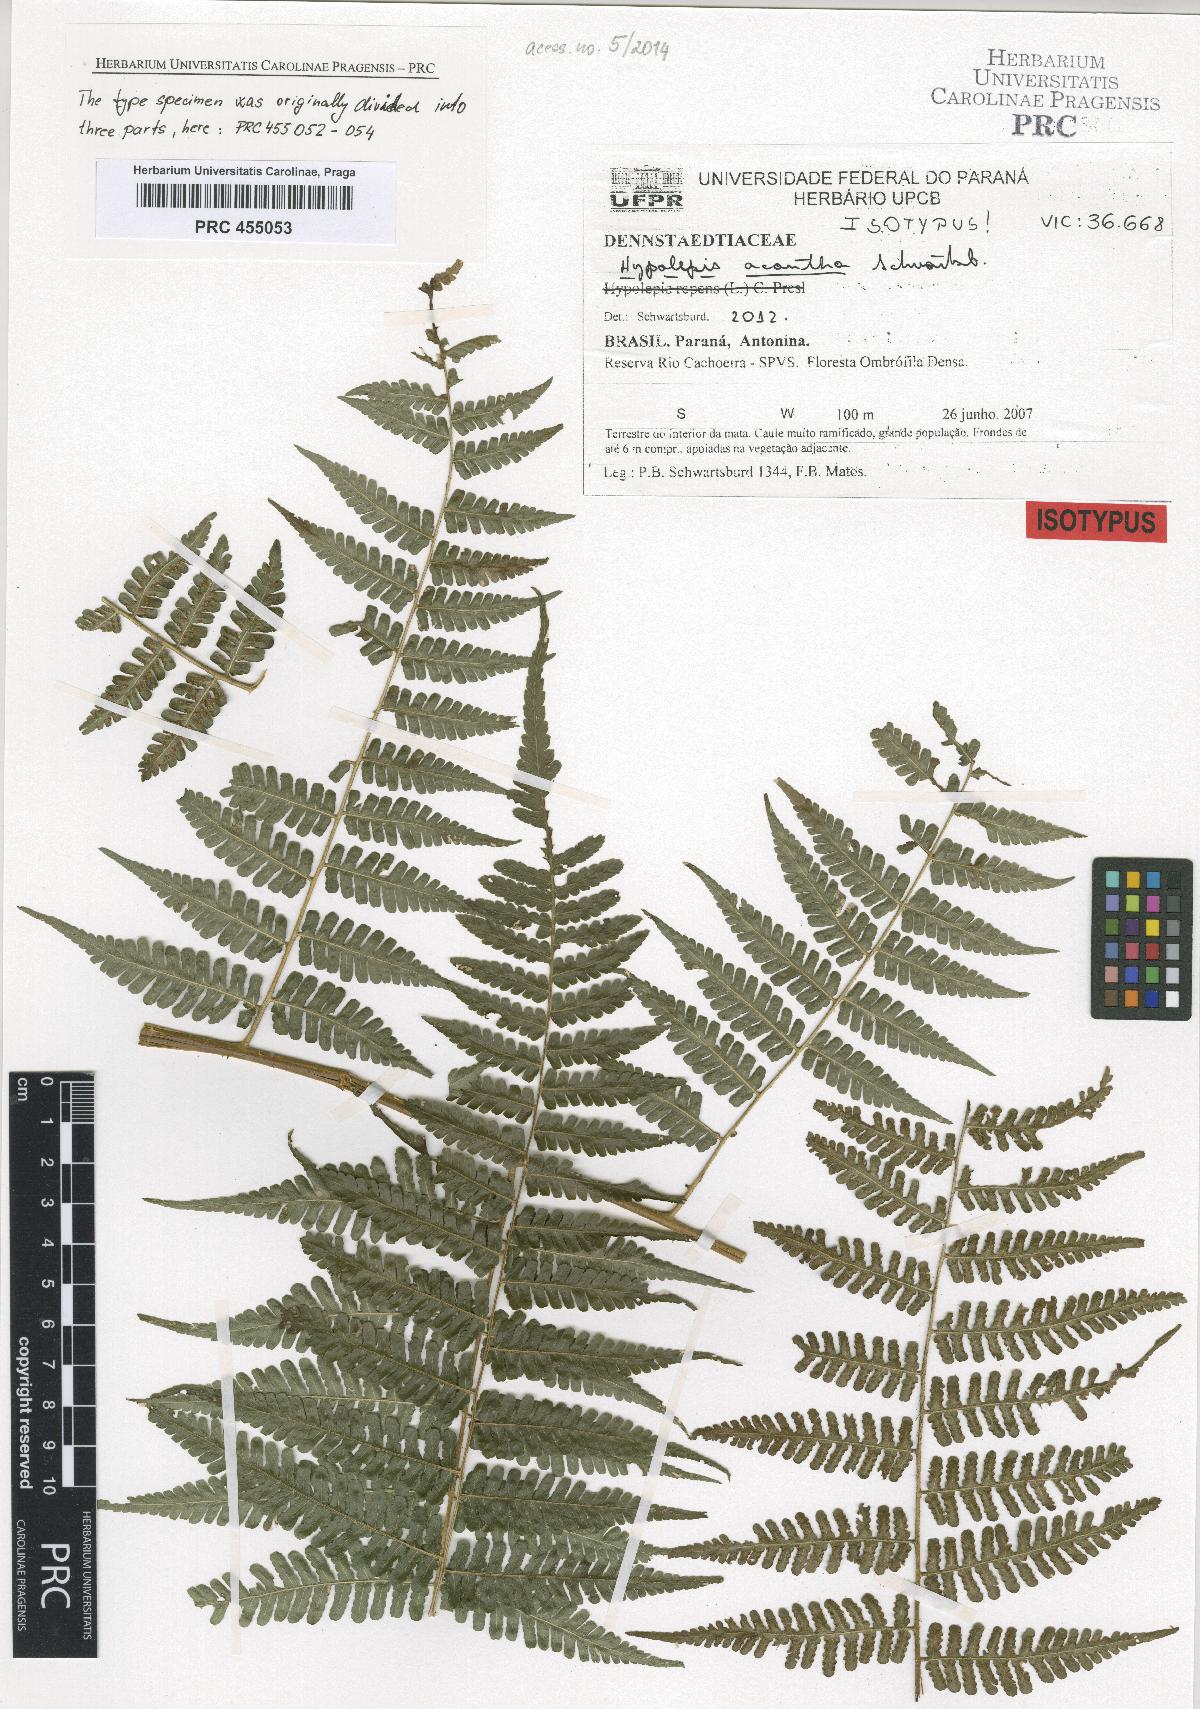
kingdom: Plantae
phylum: Tracheophyta
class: Polypodiopsida
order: Polypodiales
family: Dennstaedtiaceae
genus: Hypolepis
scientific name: Hypolepis acantha
